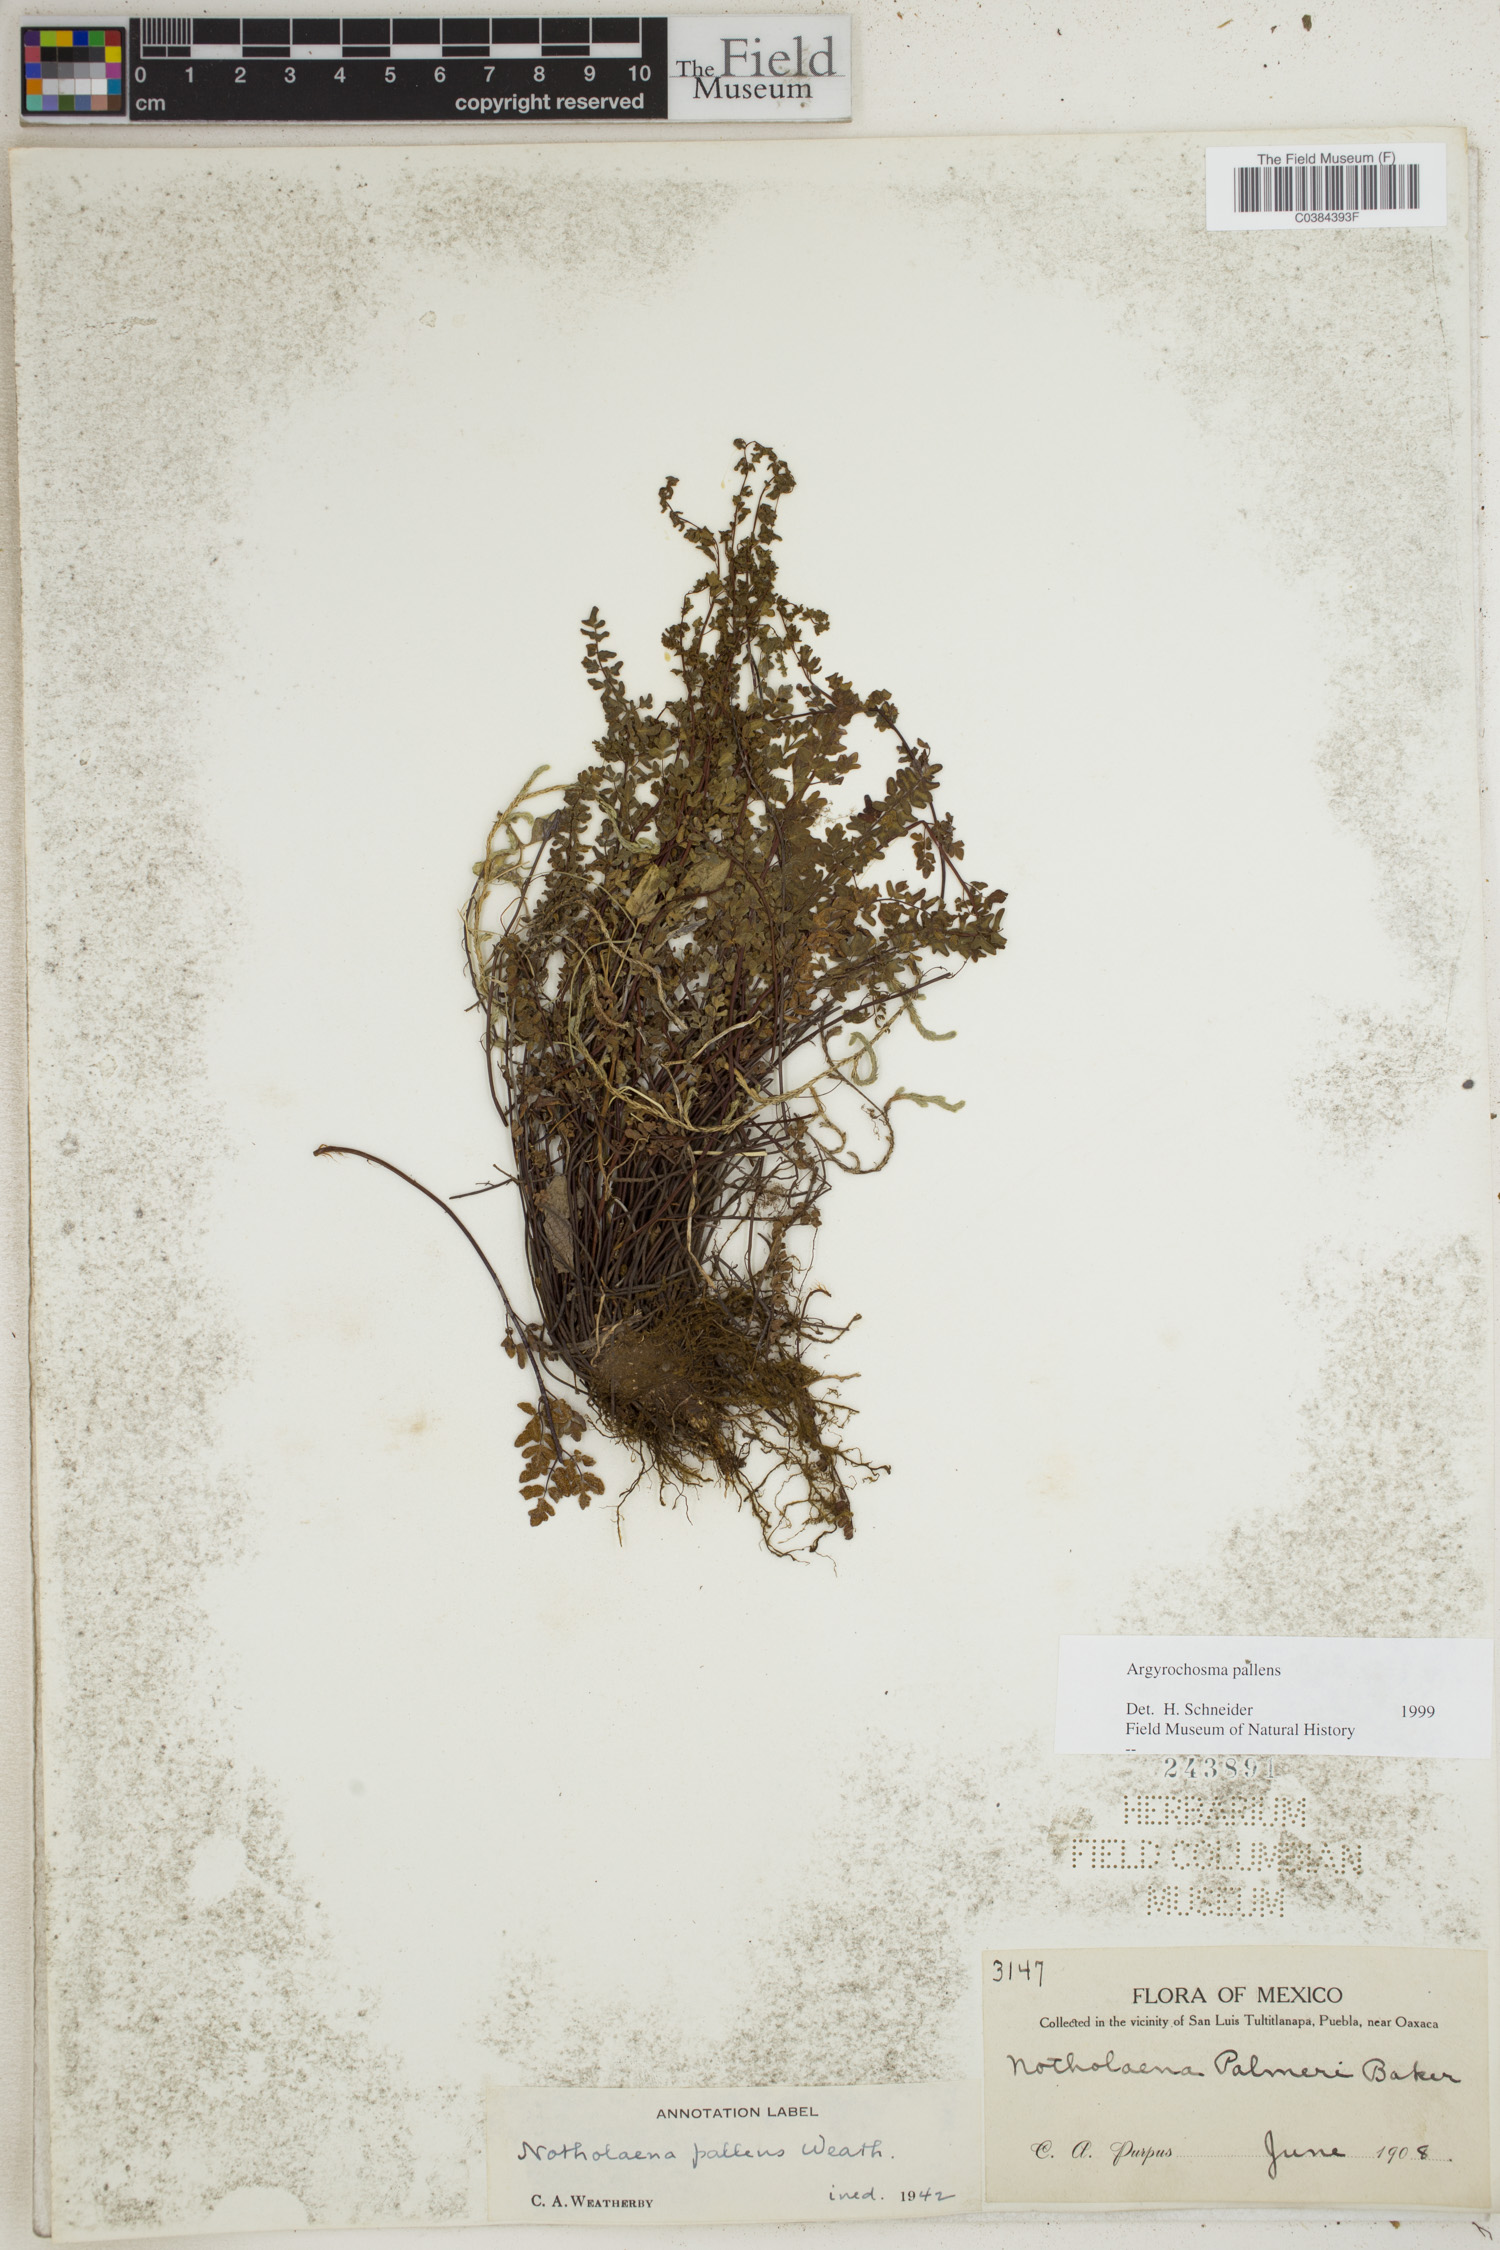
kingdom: Plantae
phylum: Tracheophyta
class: Polypodiopsida
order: Polypodiales
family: Pteridaceae
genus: Argyrochosma
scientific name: Argyrochosma pallens
